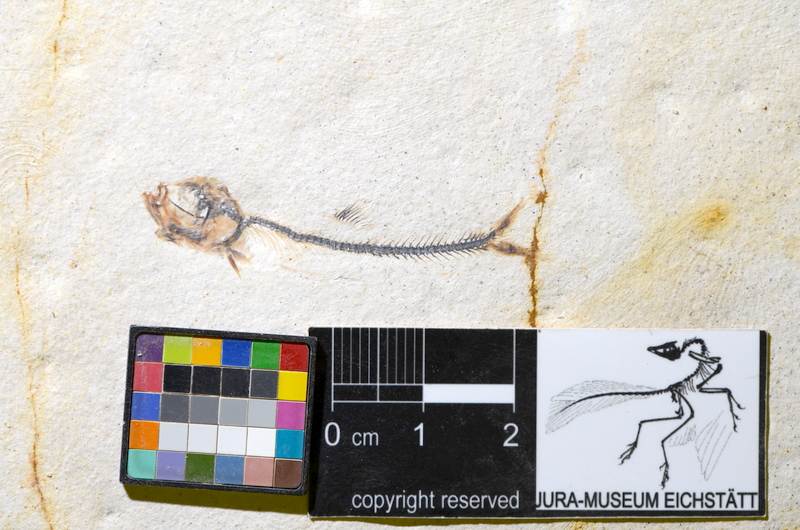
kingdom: Animalia
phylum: Chordata
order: Salmoniformes
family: Orthogonikleithridae
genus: Orthogonikleithrus
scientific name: Orthogonikleithrus hoelli
